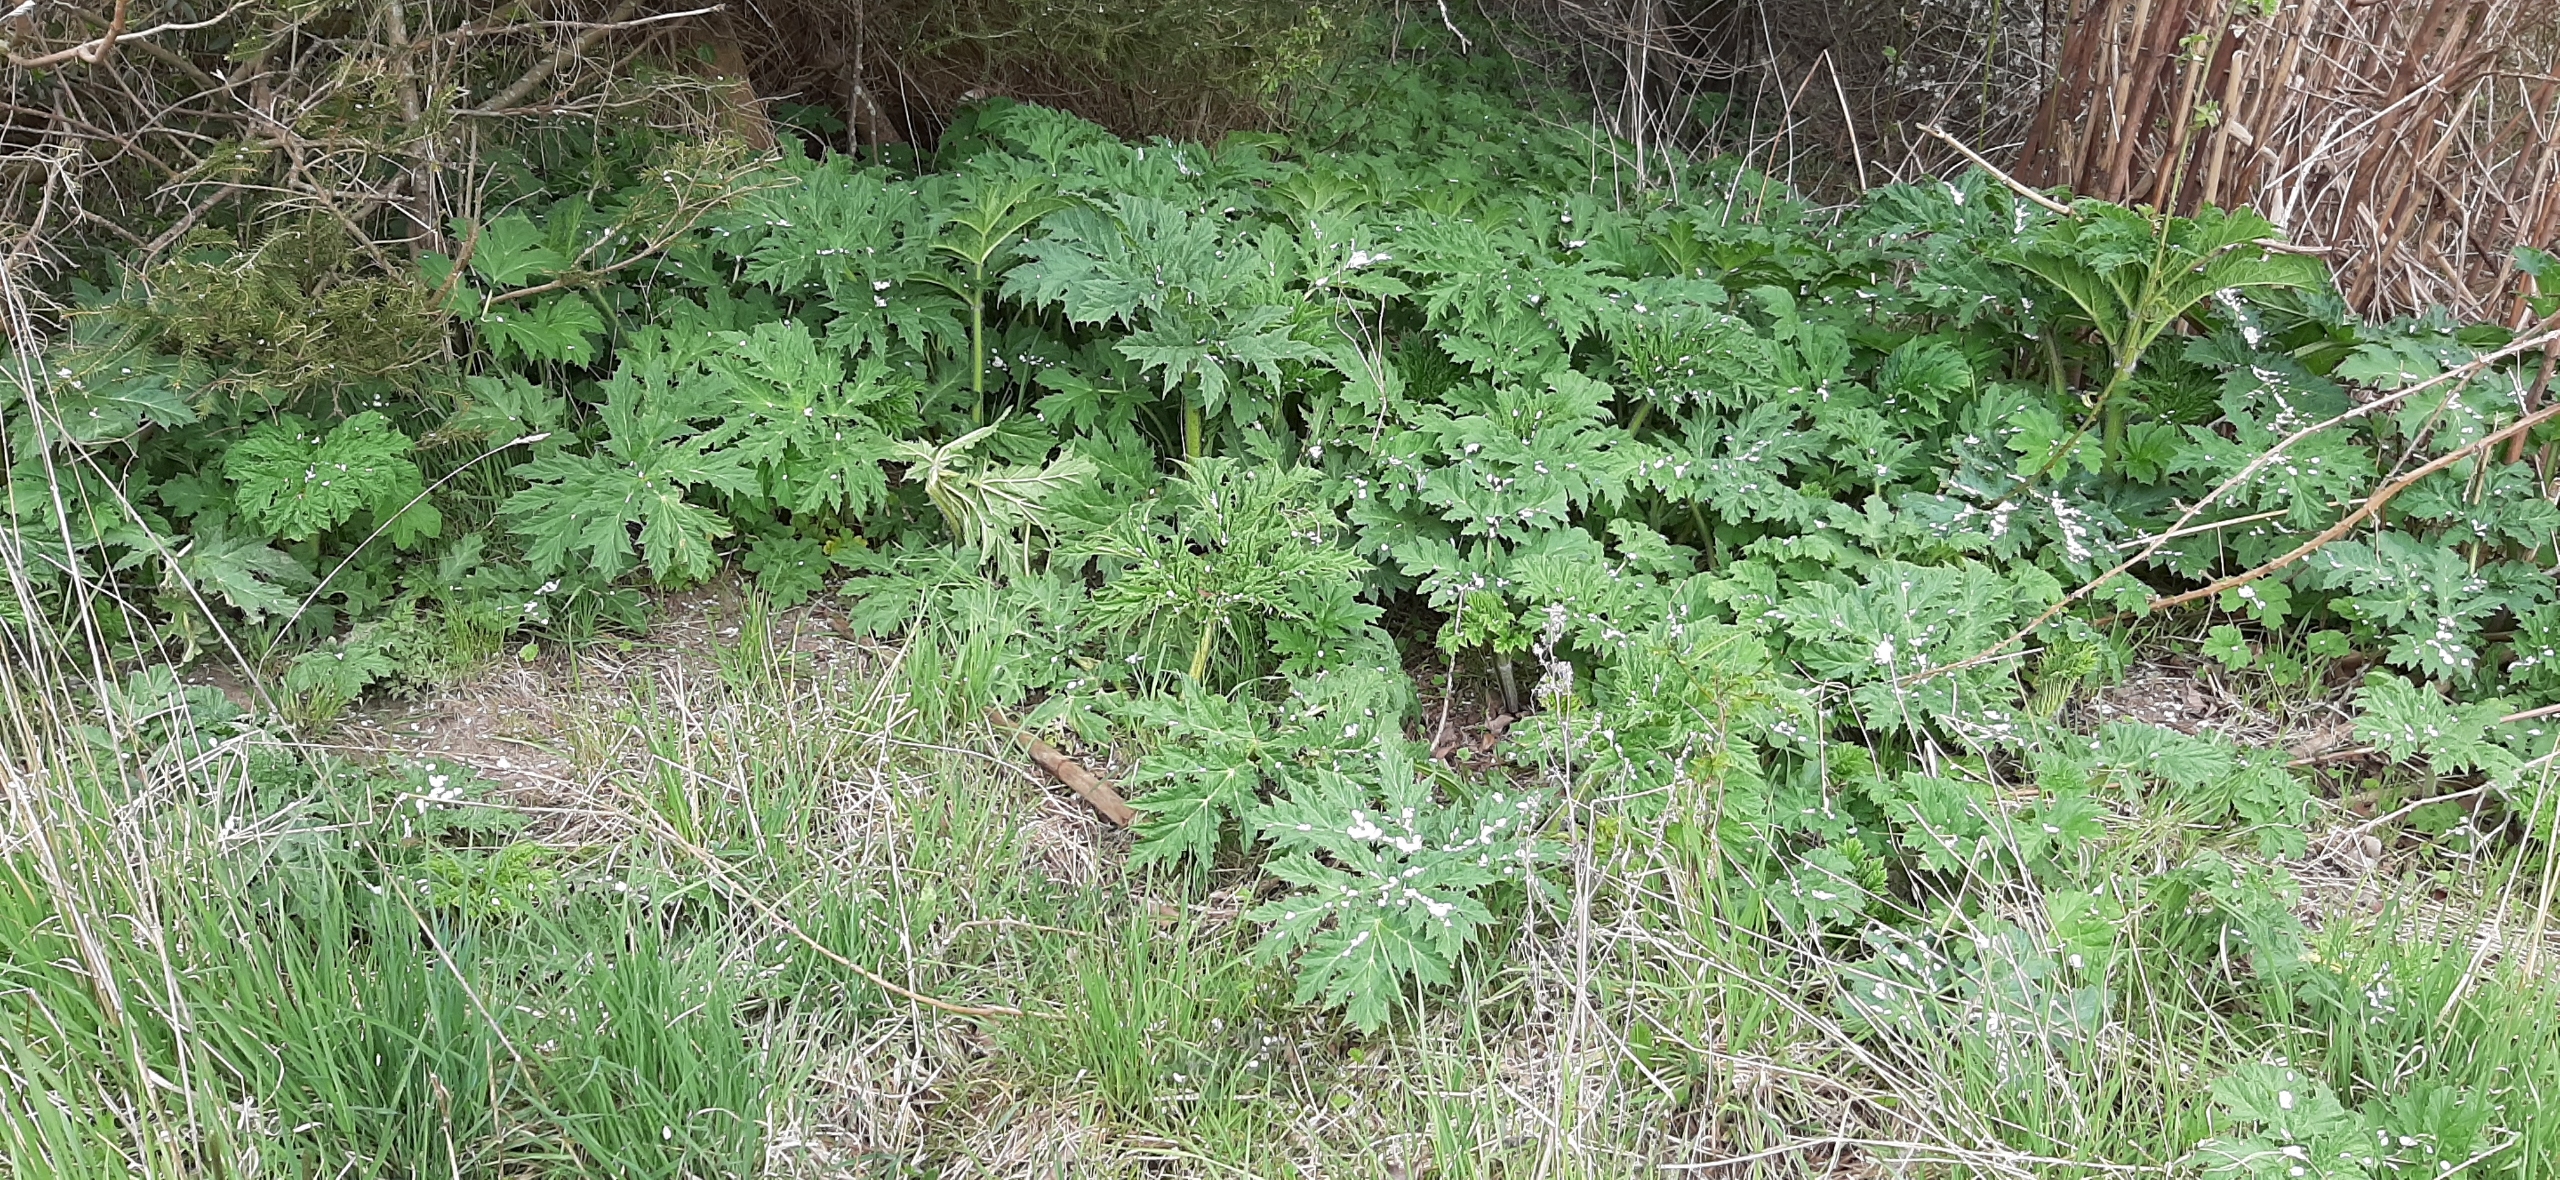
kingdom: Plantae
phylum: Tracheophyta
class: Magnoliopsida
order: Apiales
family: Apiaceae
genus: Heracleum
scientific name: Heracleum mantegazzianum
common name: Kæmpe-bjørneklo
